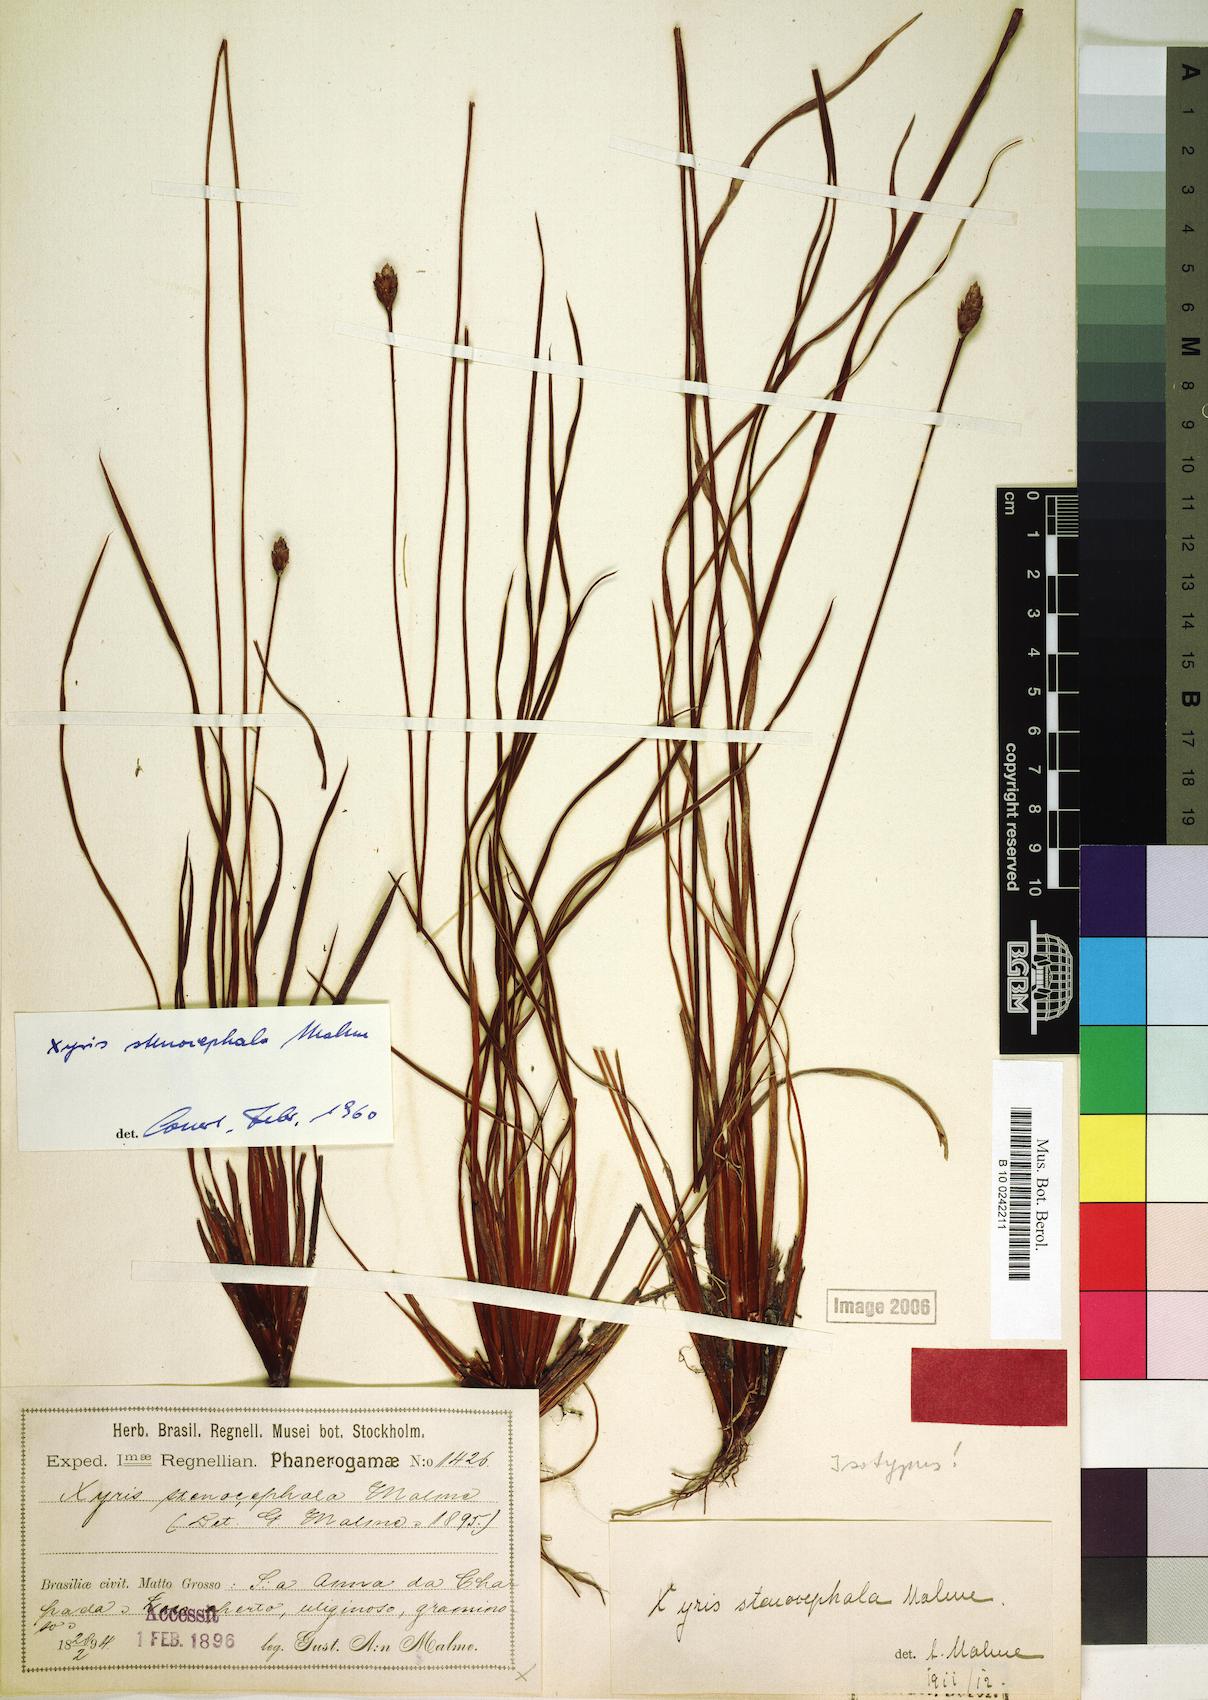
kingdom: Plantae
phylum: Tracheophyta
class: Liliopsida
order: Poales
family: Xyridaceae
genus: Xyris
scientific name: Xyris stenocephala
